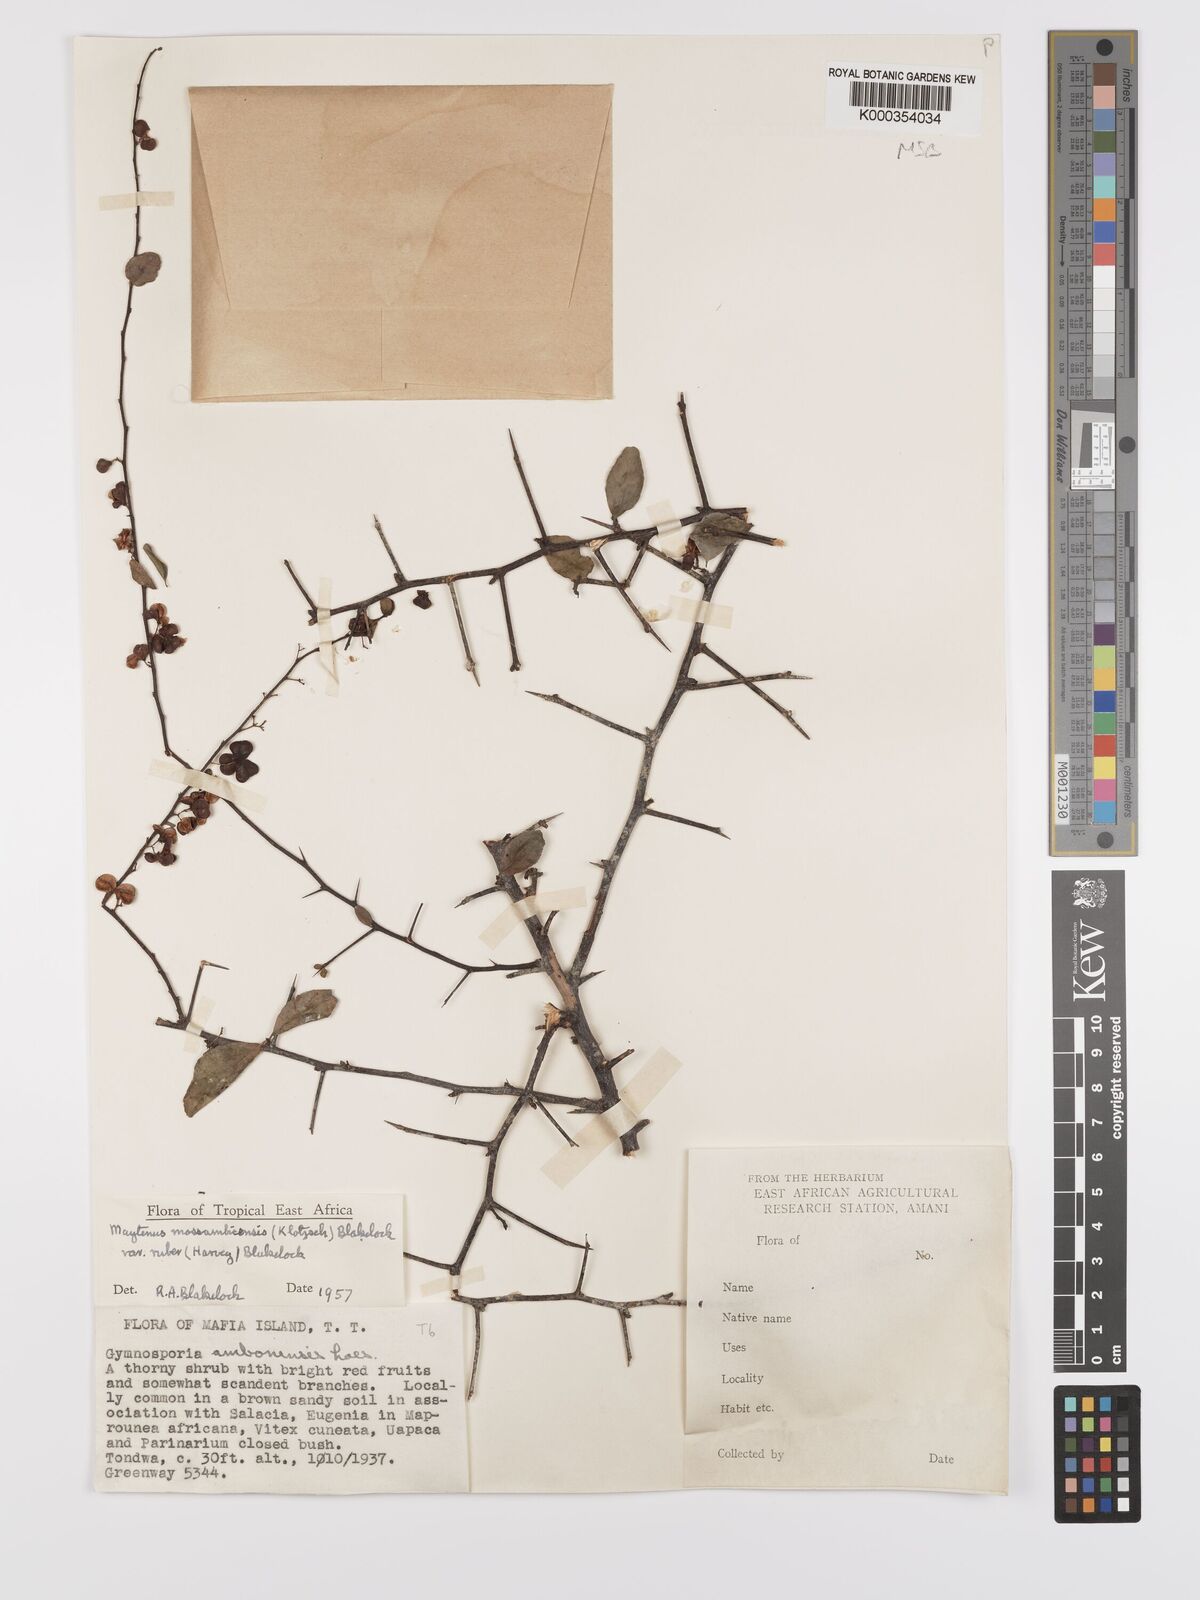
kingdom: Plantae
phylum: Tracheophyta
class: Magnoliopsida
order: Celastrales
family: Celastraceae
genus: Gymnosporia
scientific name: Gymnosporia mossambicensis
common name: Black forest spike-thorn
